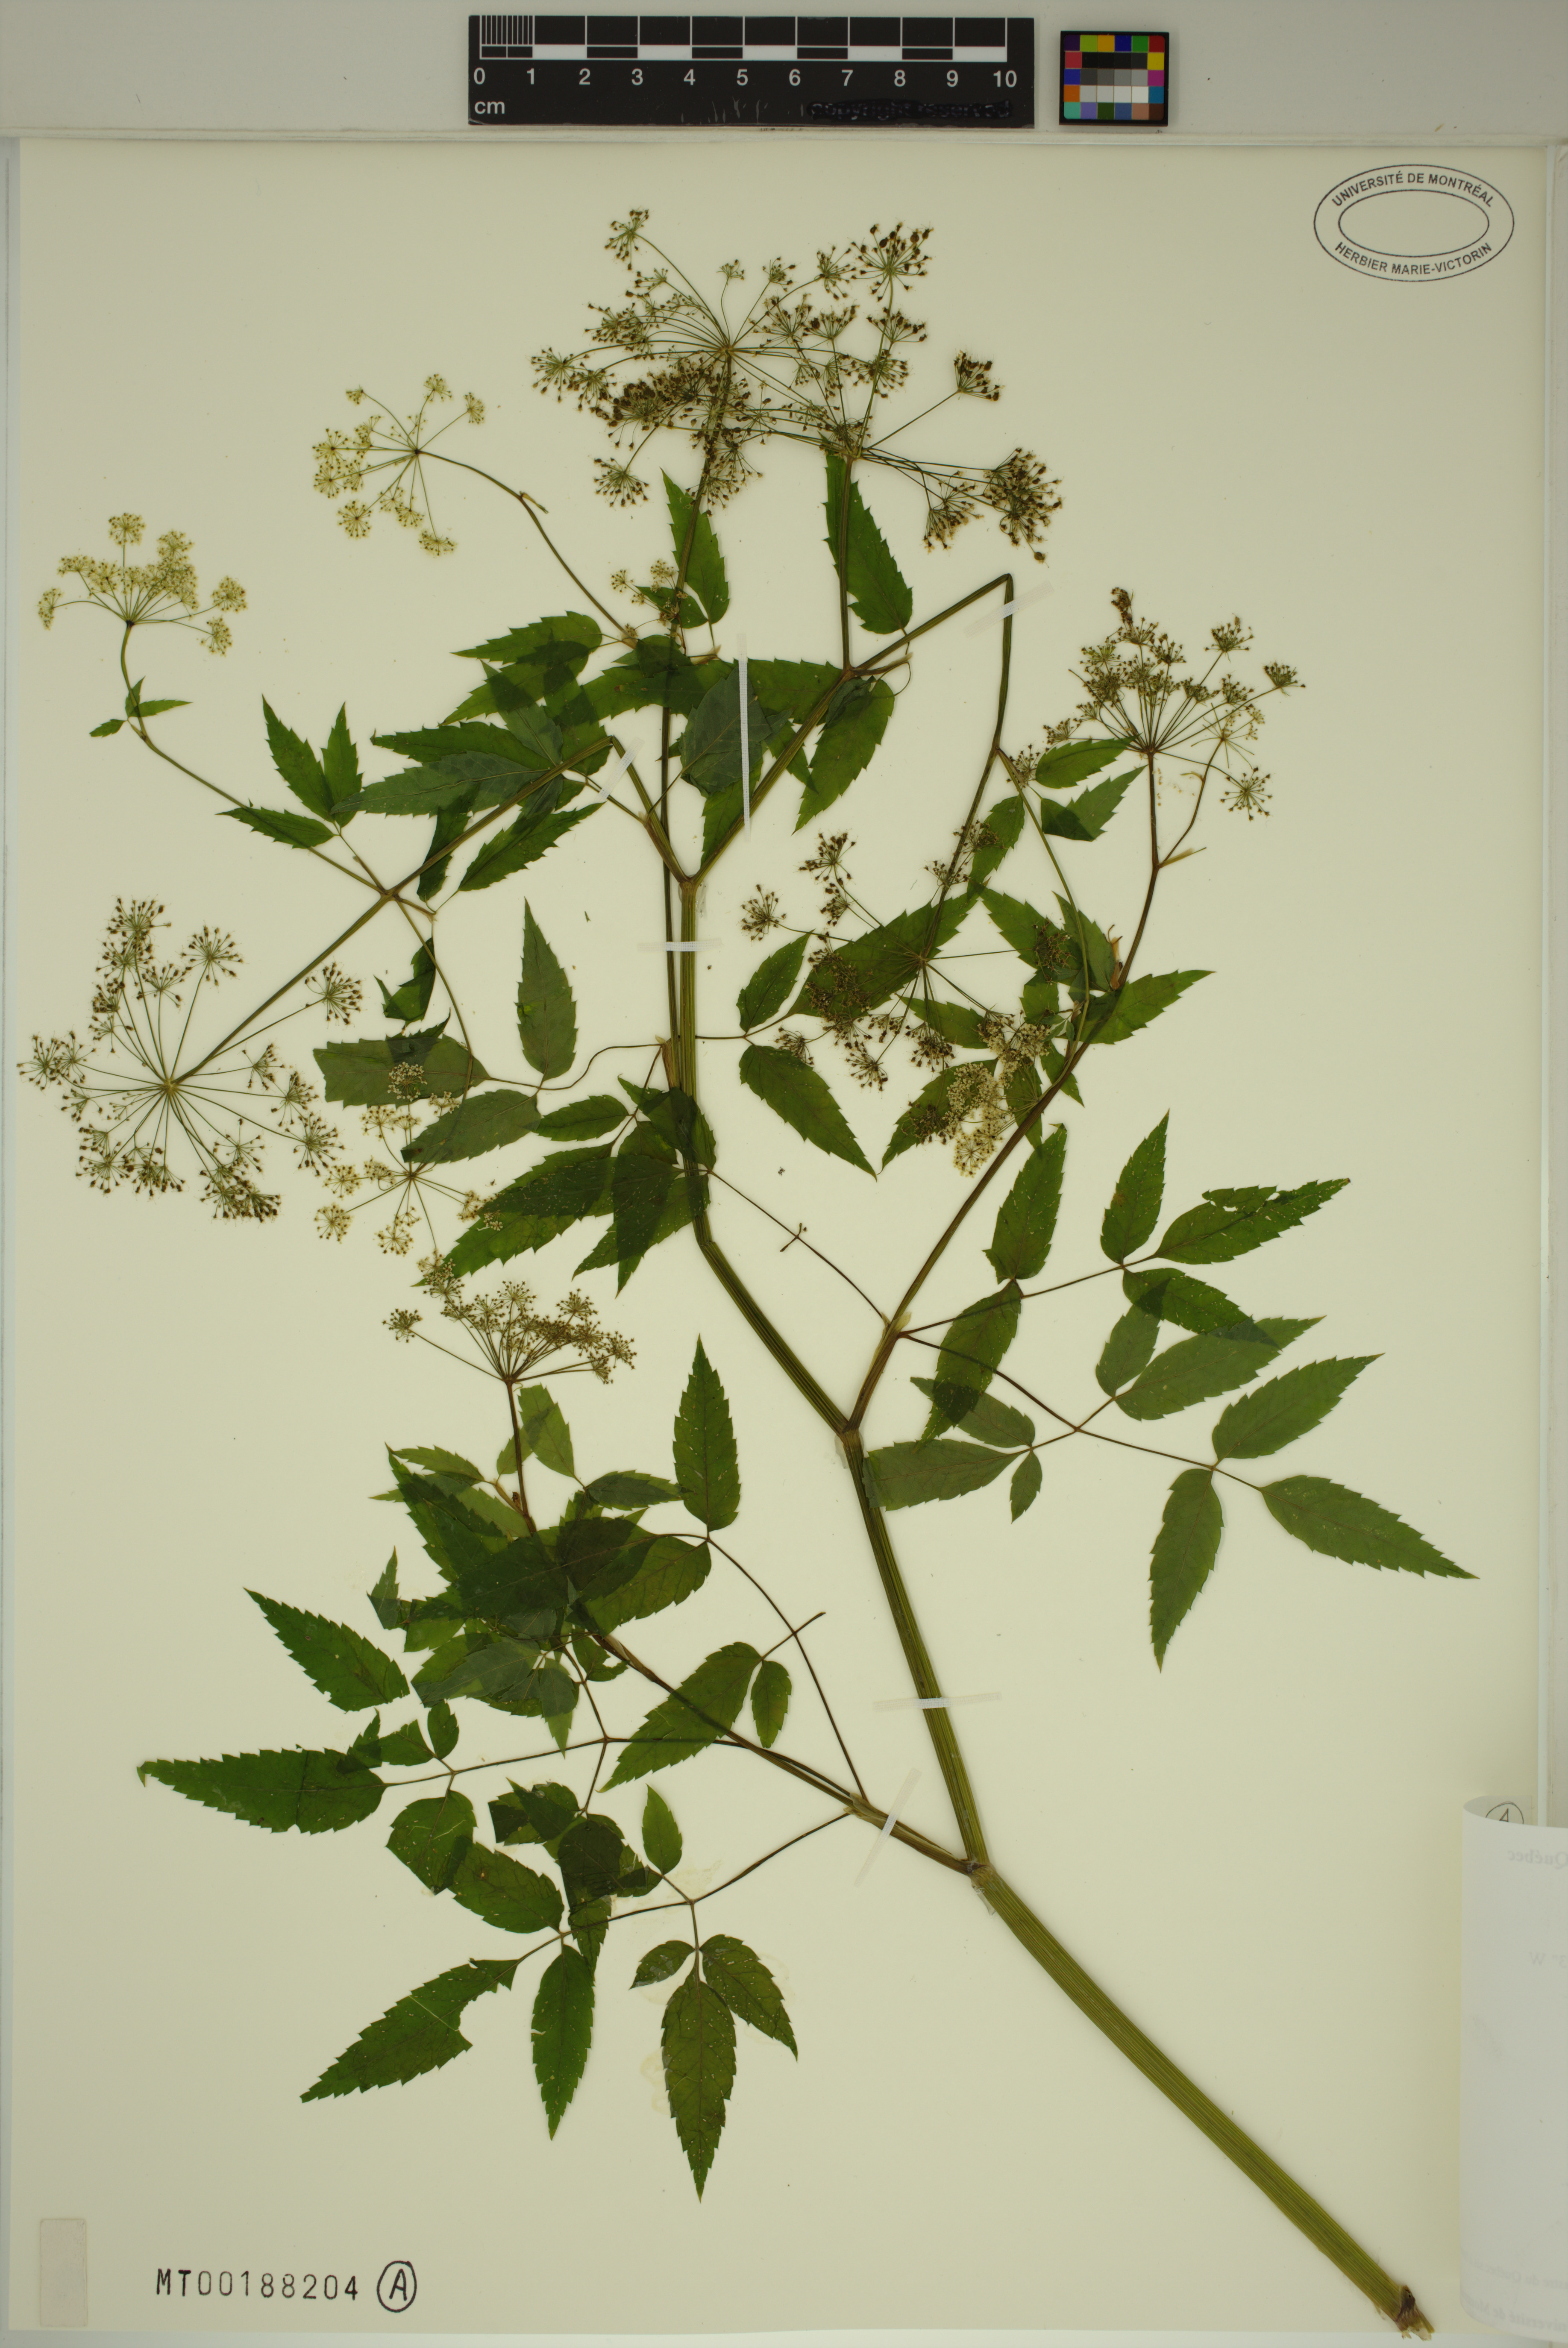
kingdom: Plantae
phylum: Tracheophyta
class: Magnoliopsida
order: Apiales
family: Apiaceae
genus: Cicuta
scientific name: Cicuta maculata
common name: Spotted cowbane
